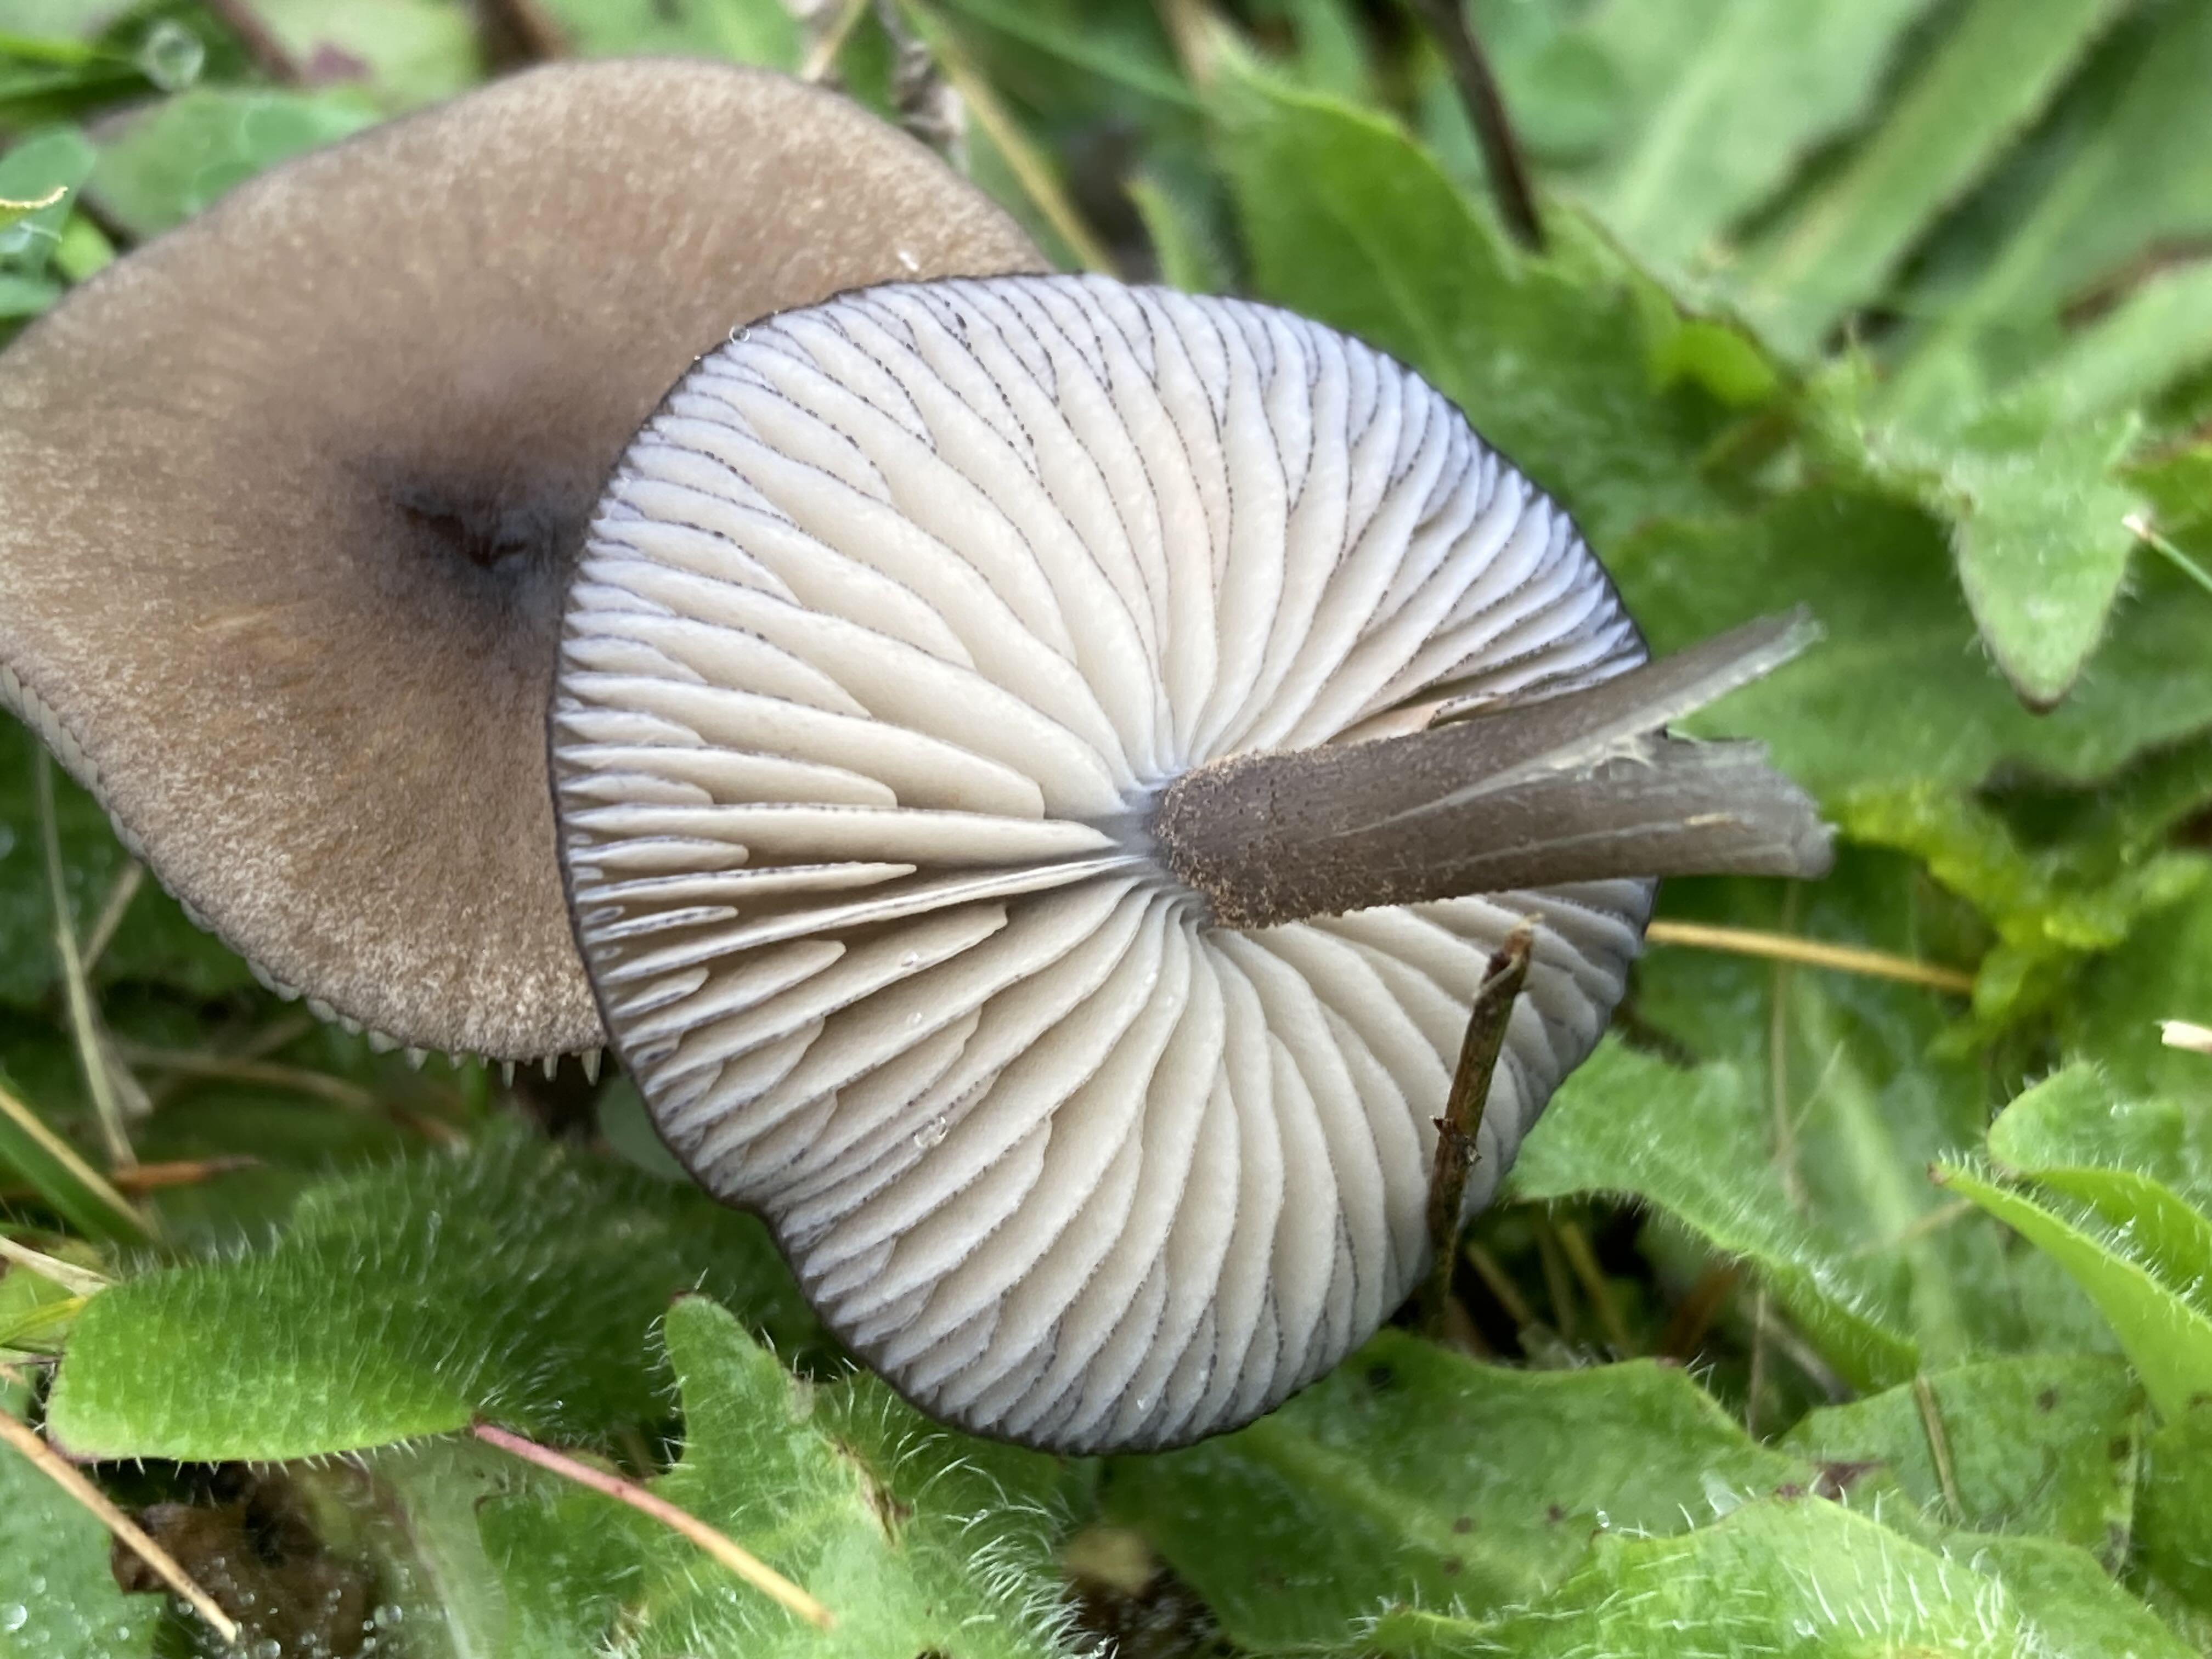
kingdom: Fungi
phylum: Basidiomycota
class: Agaricomycetes
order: Agaricales
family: Entolomataceae
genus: Entoloma
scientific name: Entoloma
